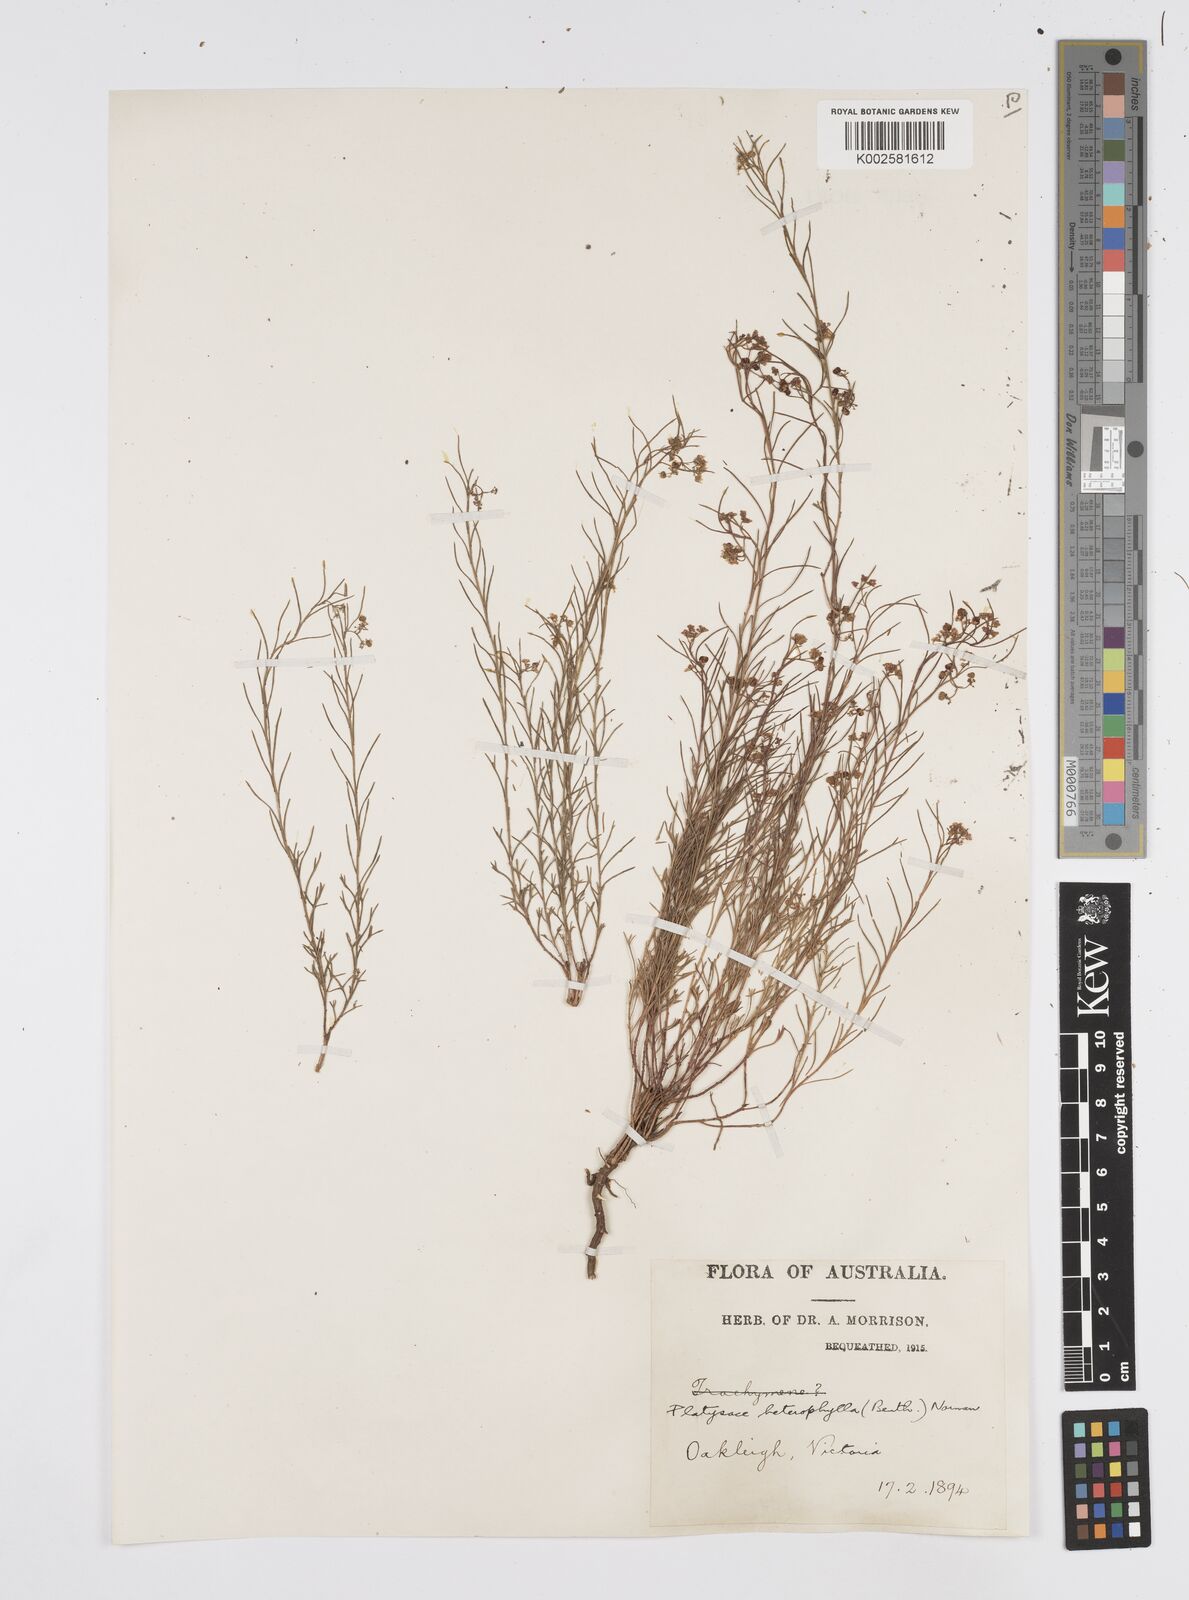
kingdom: Plantae
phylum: Tracheophyta
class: Magnoliopsida
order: Apiales
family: Apiaceae
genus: Platysace
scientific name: Platysace heterophylla
